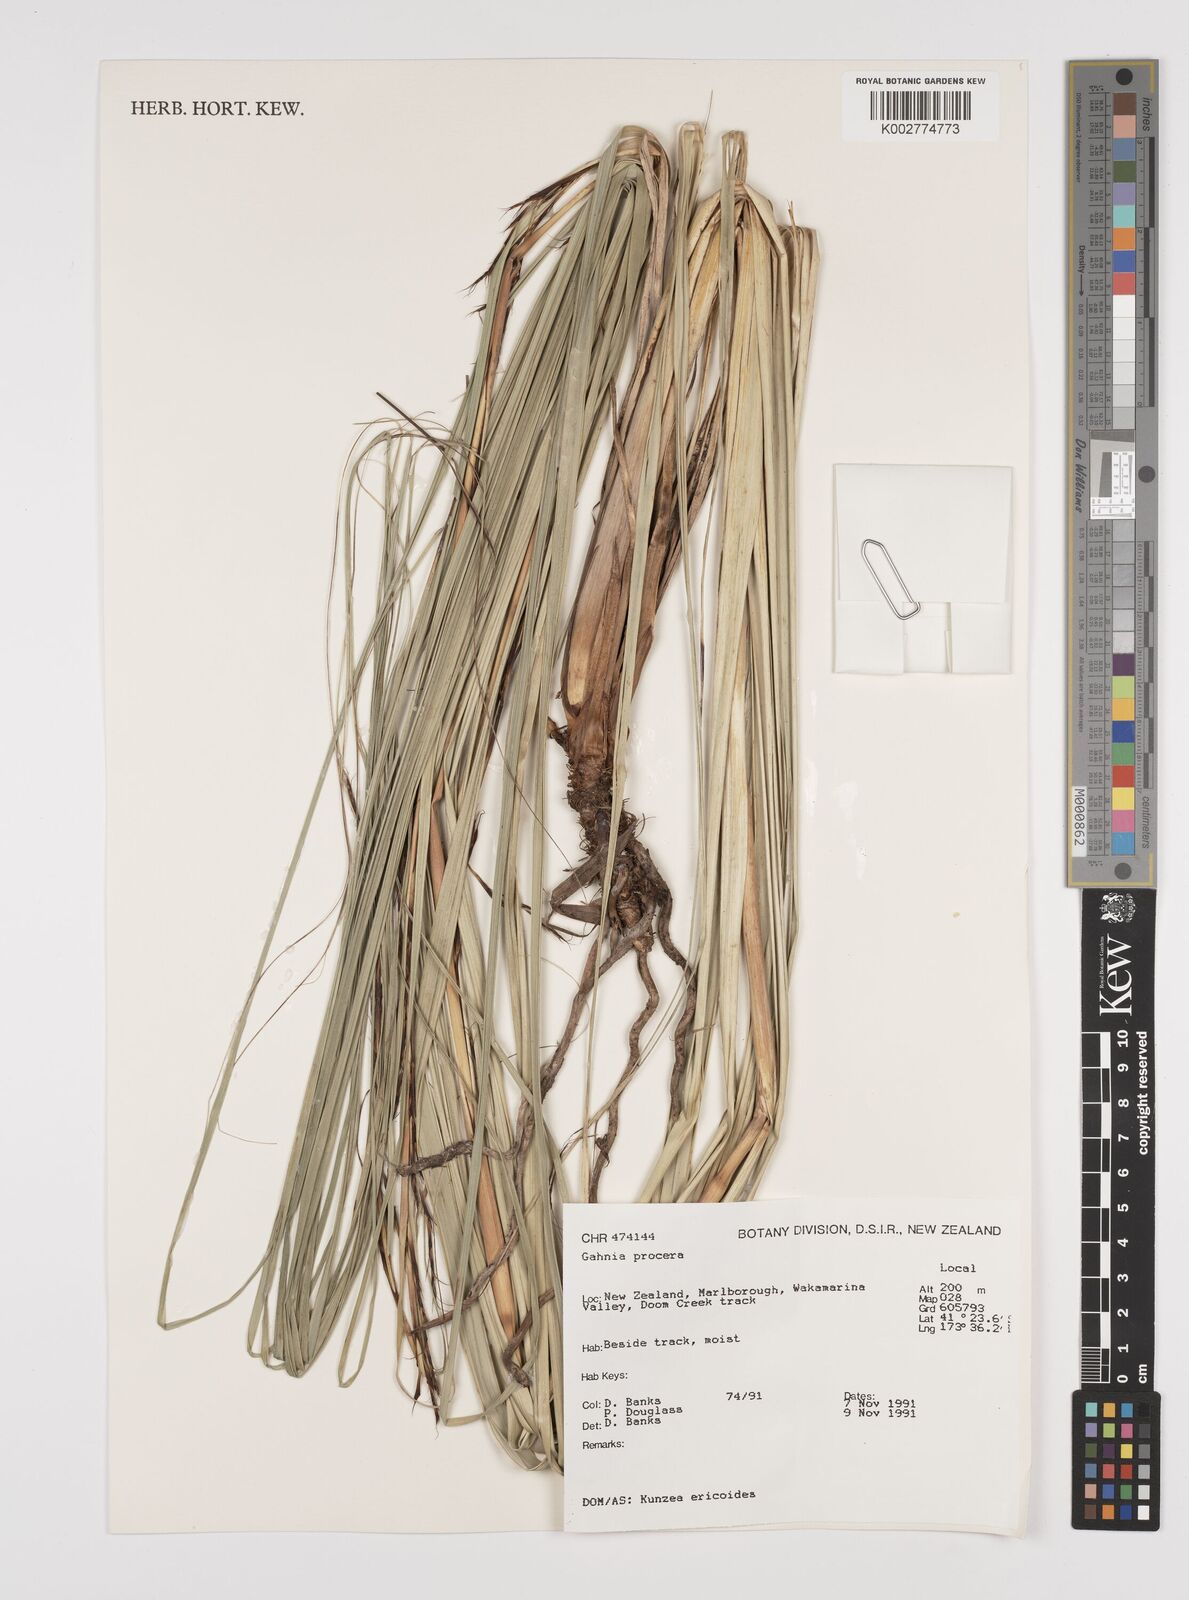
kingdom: Plantae
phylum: Tracheophyta
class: Liliopsida
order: Poales
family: Cyperaceae
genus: Gahnia
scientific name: Gahnia procera
